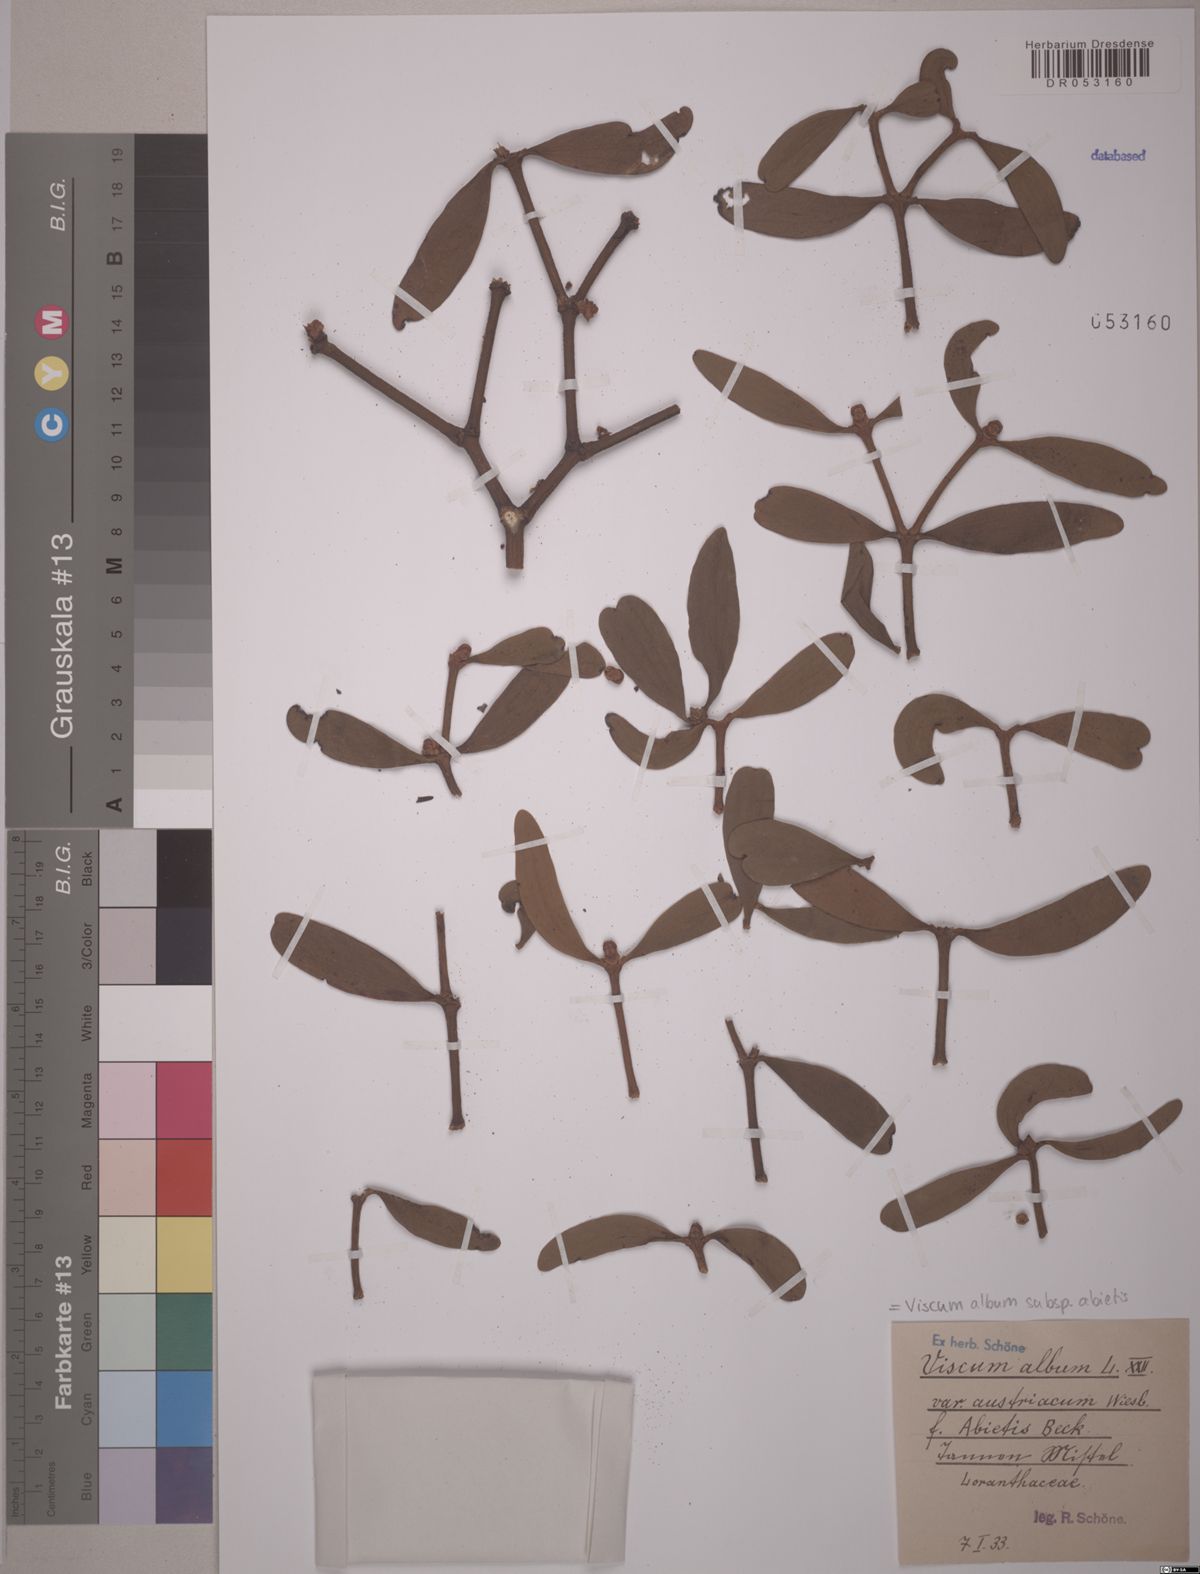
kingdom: Plantae
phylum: Tracheophyta
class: Magnoliopsida
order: Santalales
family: Viscaceae
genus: Viscum
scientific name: Viscum album
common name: Mistletoe
